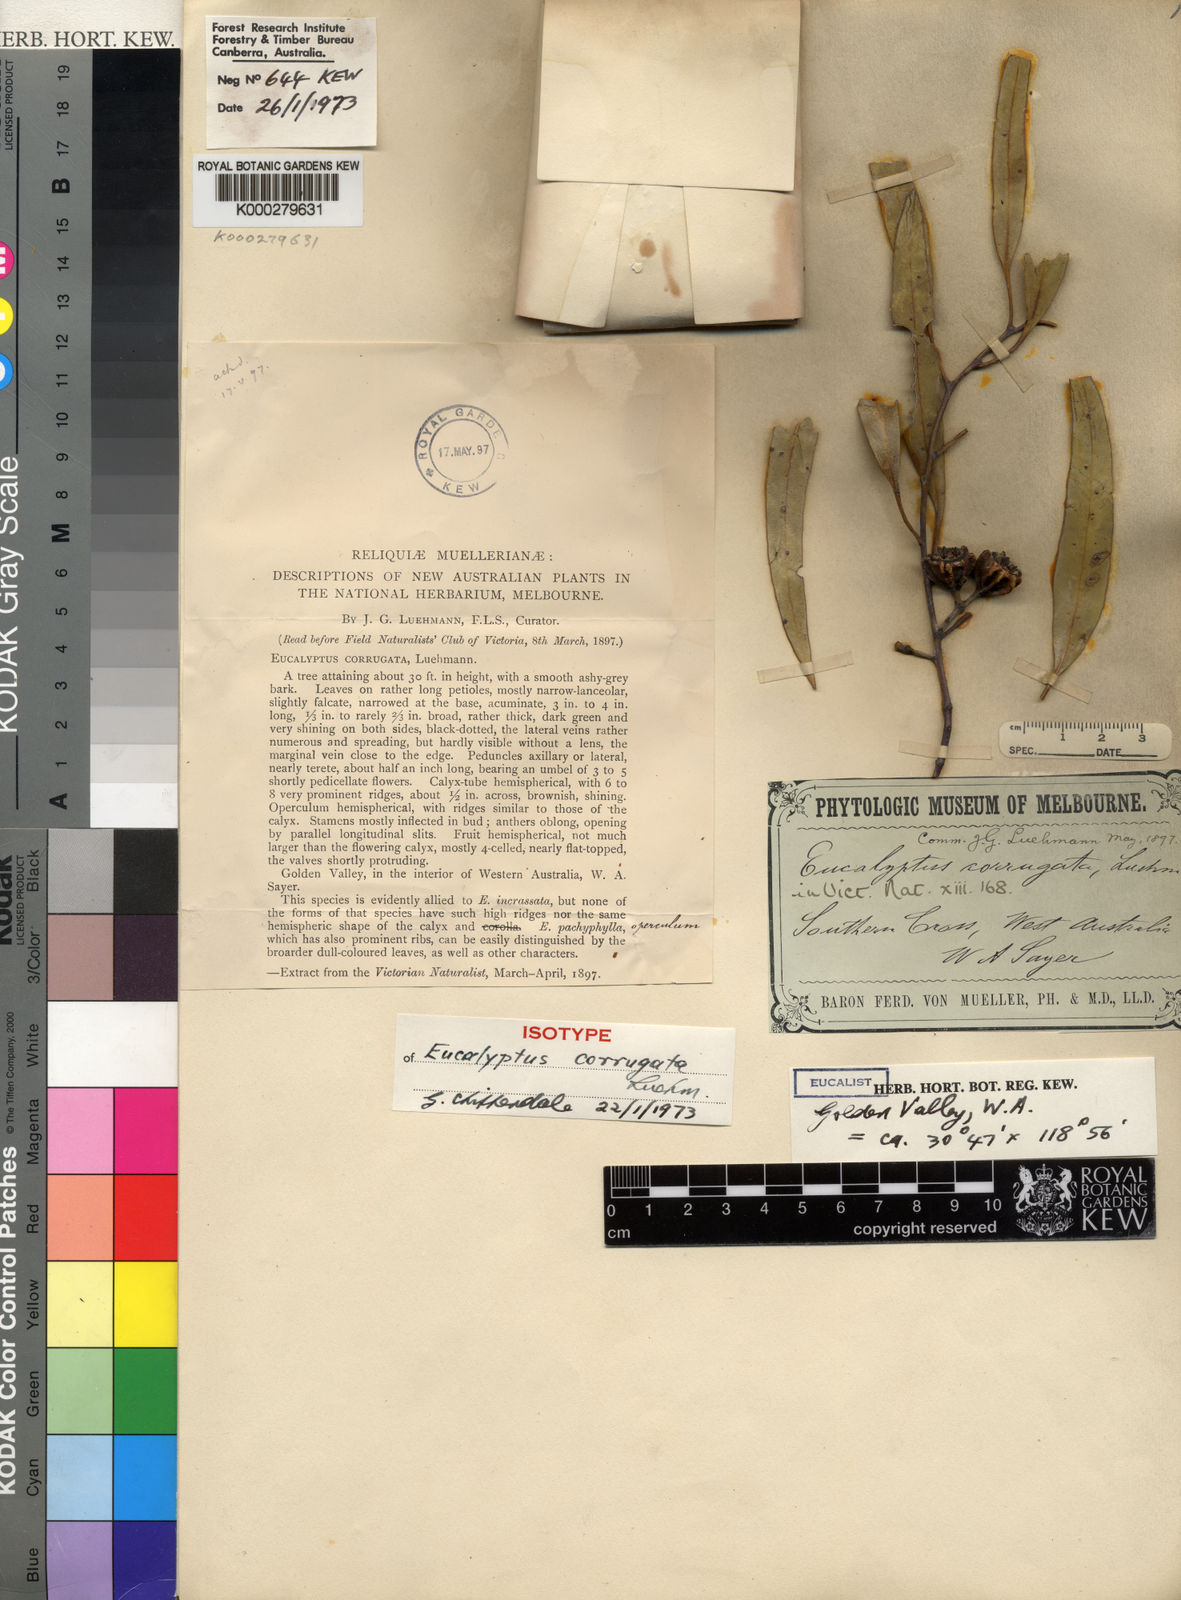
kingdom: Plantae
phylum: Tracheophyta
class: Magnoliopsida
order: Myrtales
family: Myrtaceae
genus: Eucalyptus
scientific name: Eucalyptus corrugata
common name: Rib-fruit mallee
